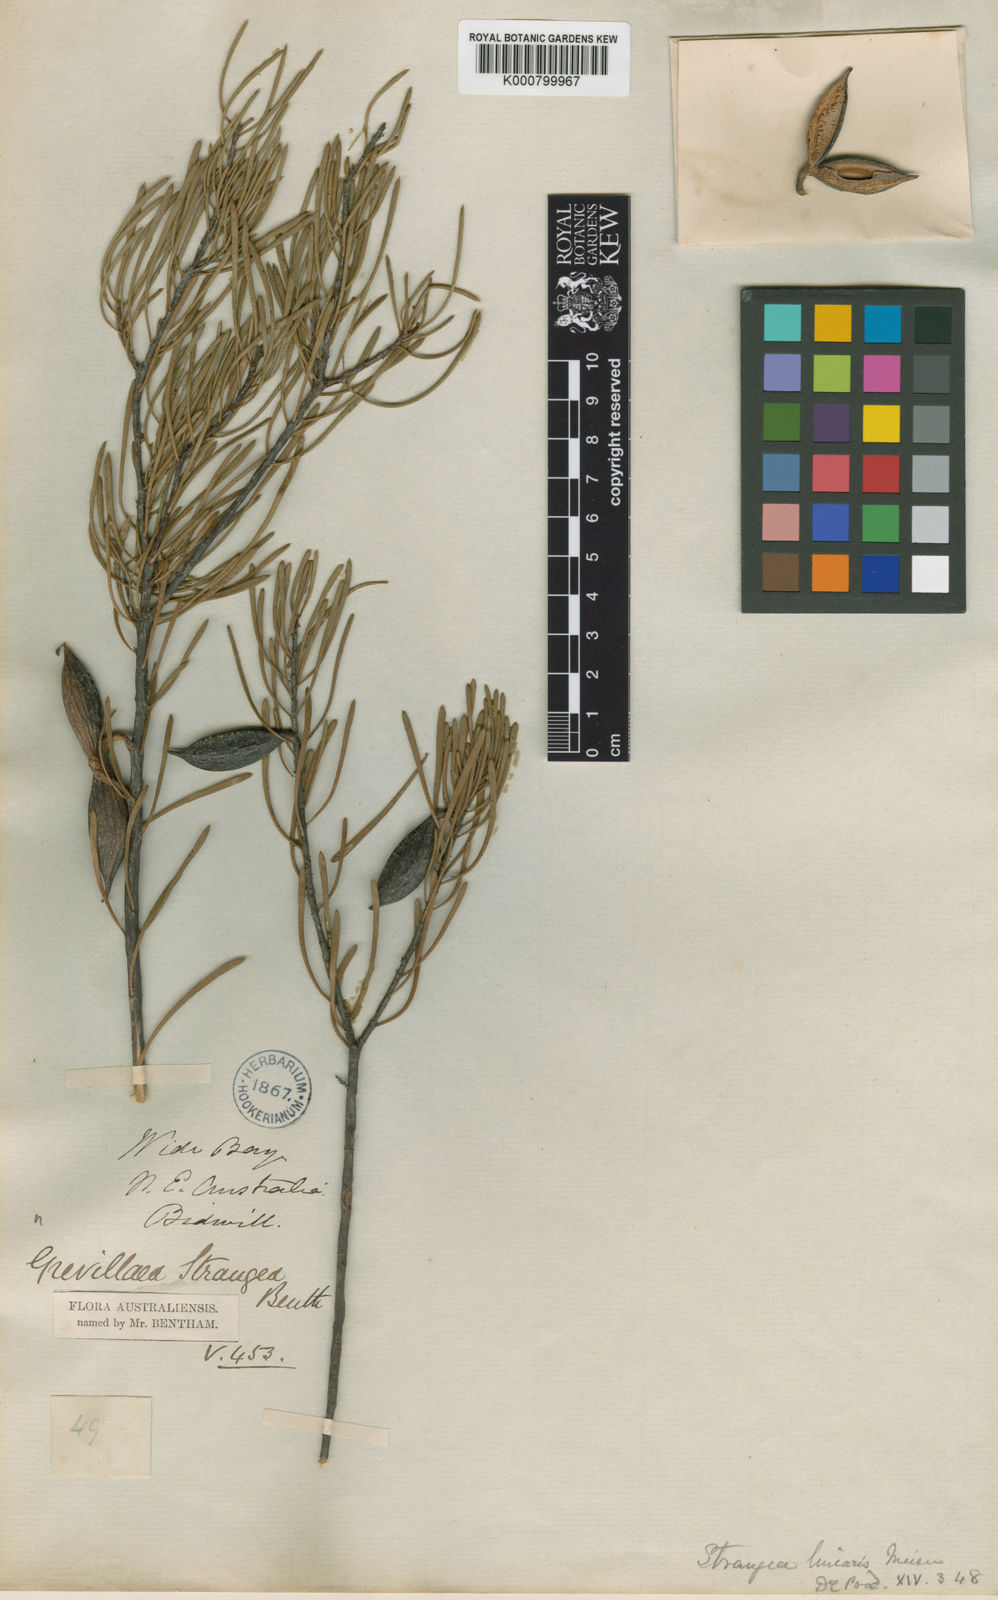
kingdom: Plantae
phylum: Tracheophyta
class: Magnoliopsida
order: Proteales
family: Proteaceae
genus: Strangea
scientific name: Strangea linearis
